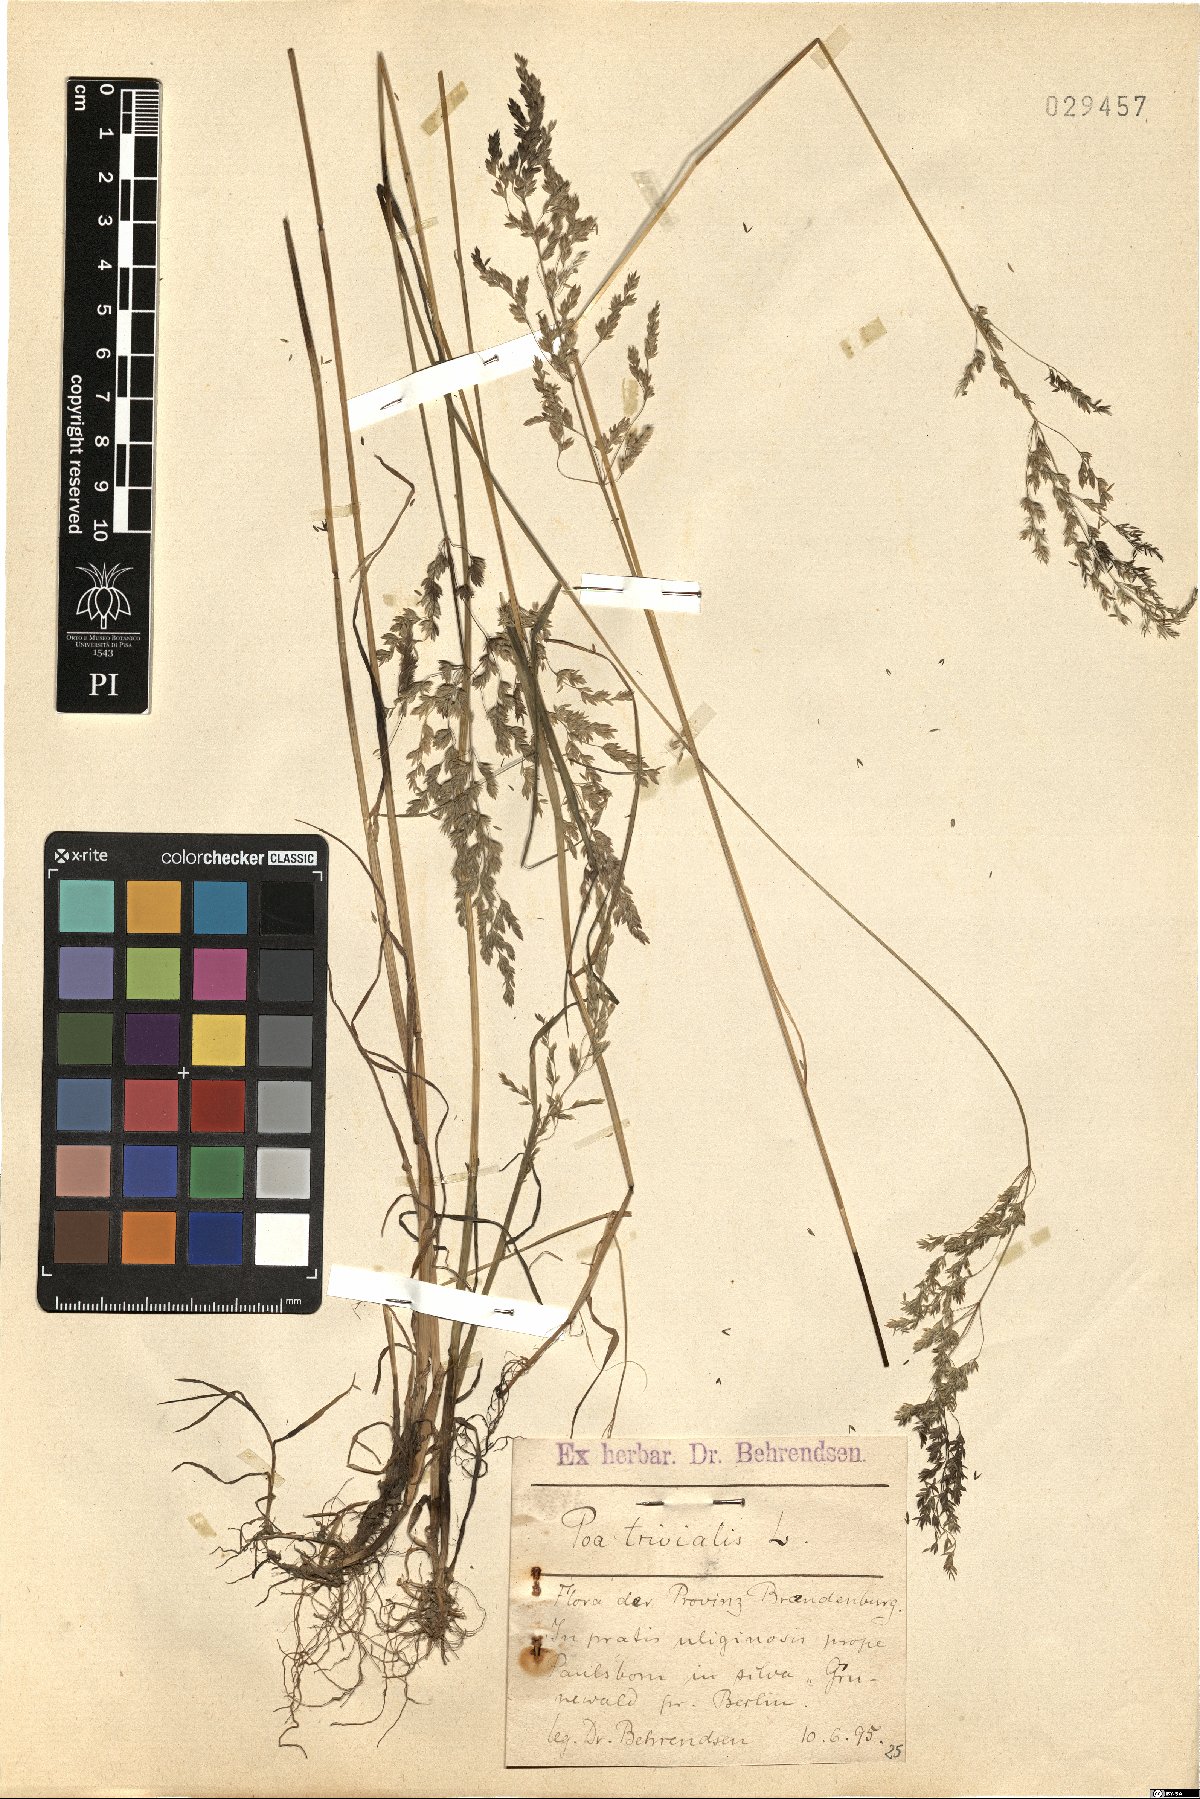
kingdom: Plantae
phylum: Tracheophyta
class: Liliopsida
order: Poales
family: Poaceae
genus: Poa
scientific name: Poa trivialis
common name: Rough bluegrass
